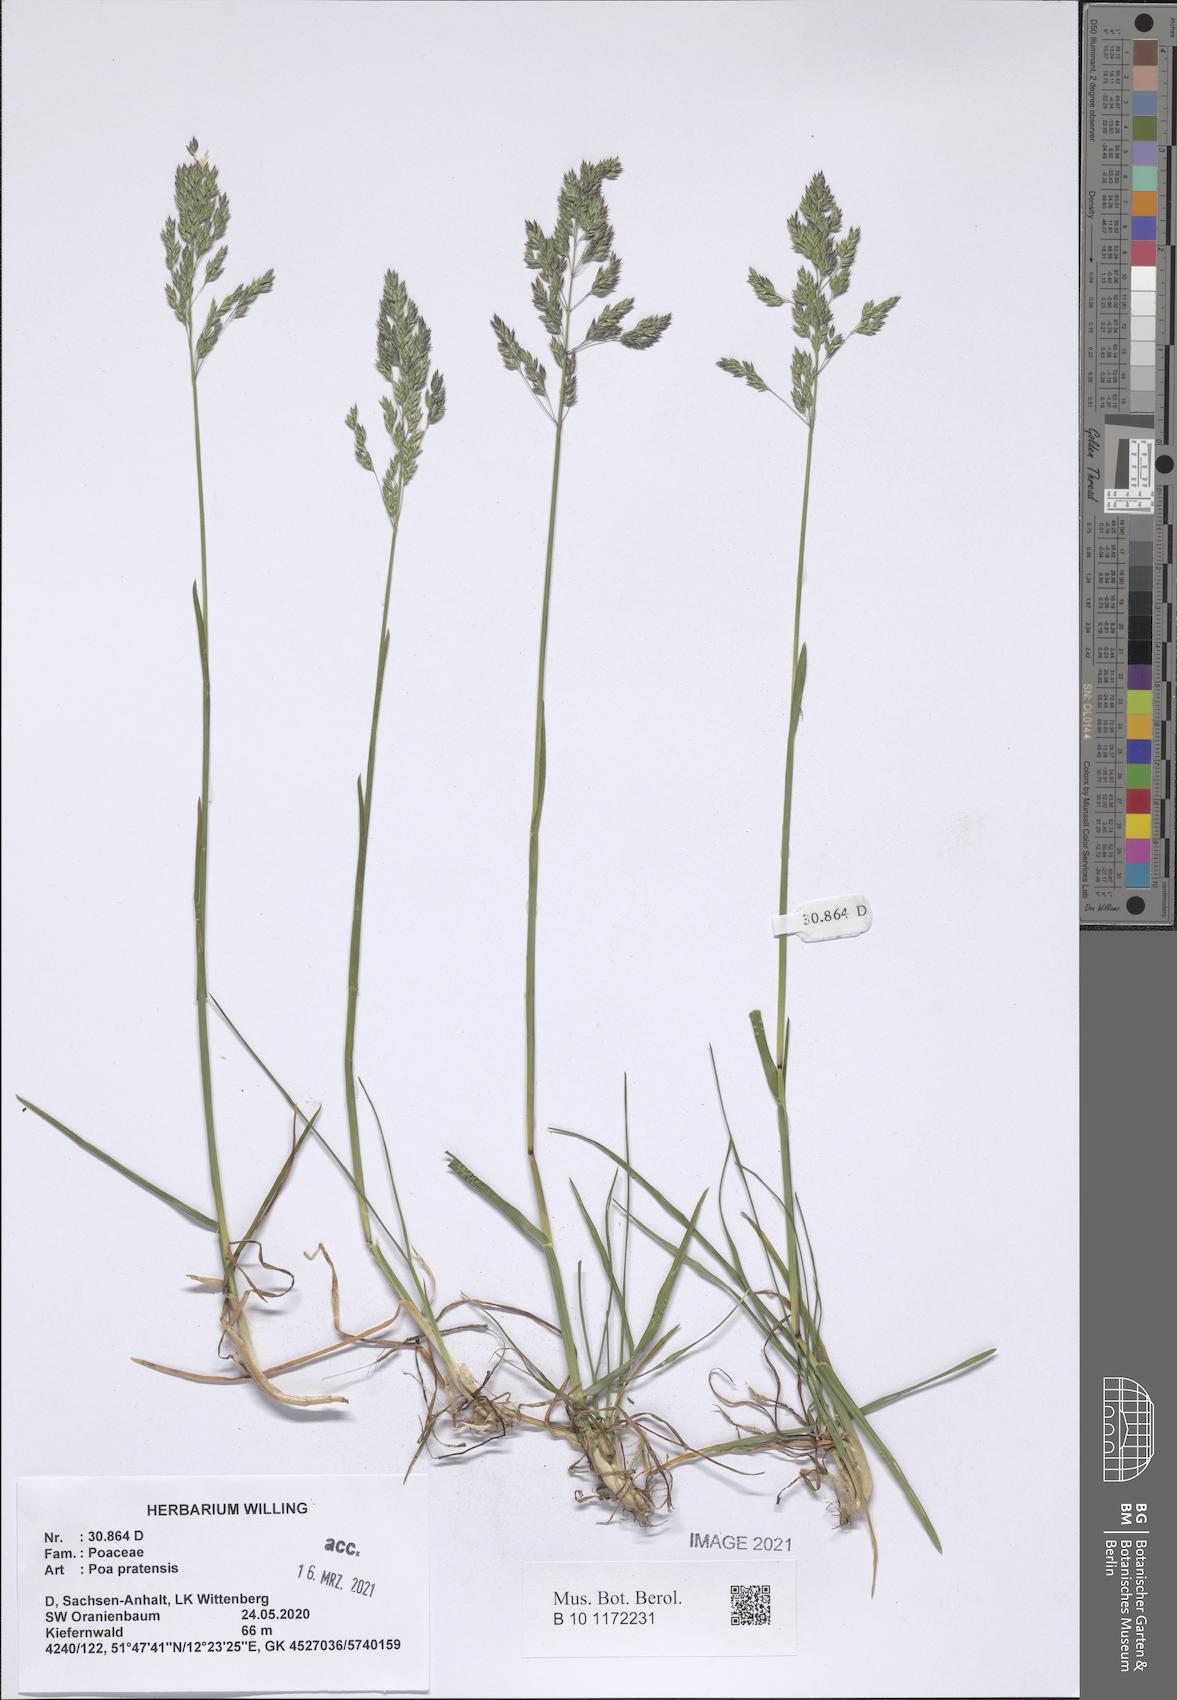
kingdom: Plantae
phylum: Tracheophyta
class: Liliopsida
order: Poales
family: Poaceae
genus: Poa
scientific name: Poa pratensis
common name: Kentucky bluegrass
